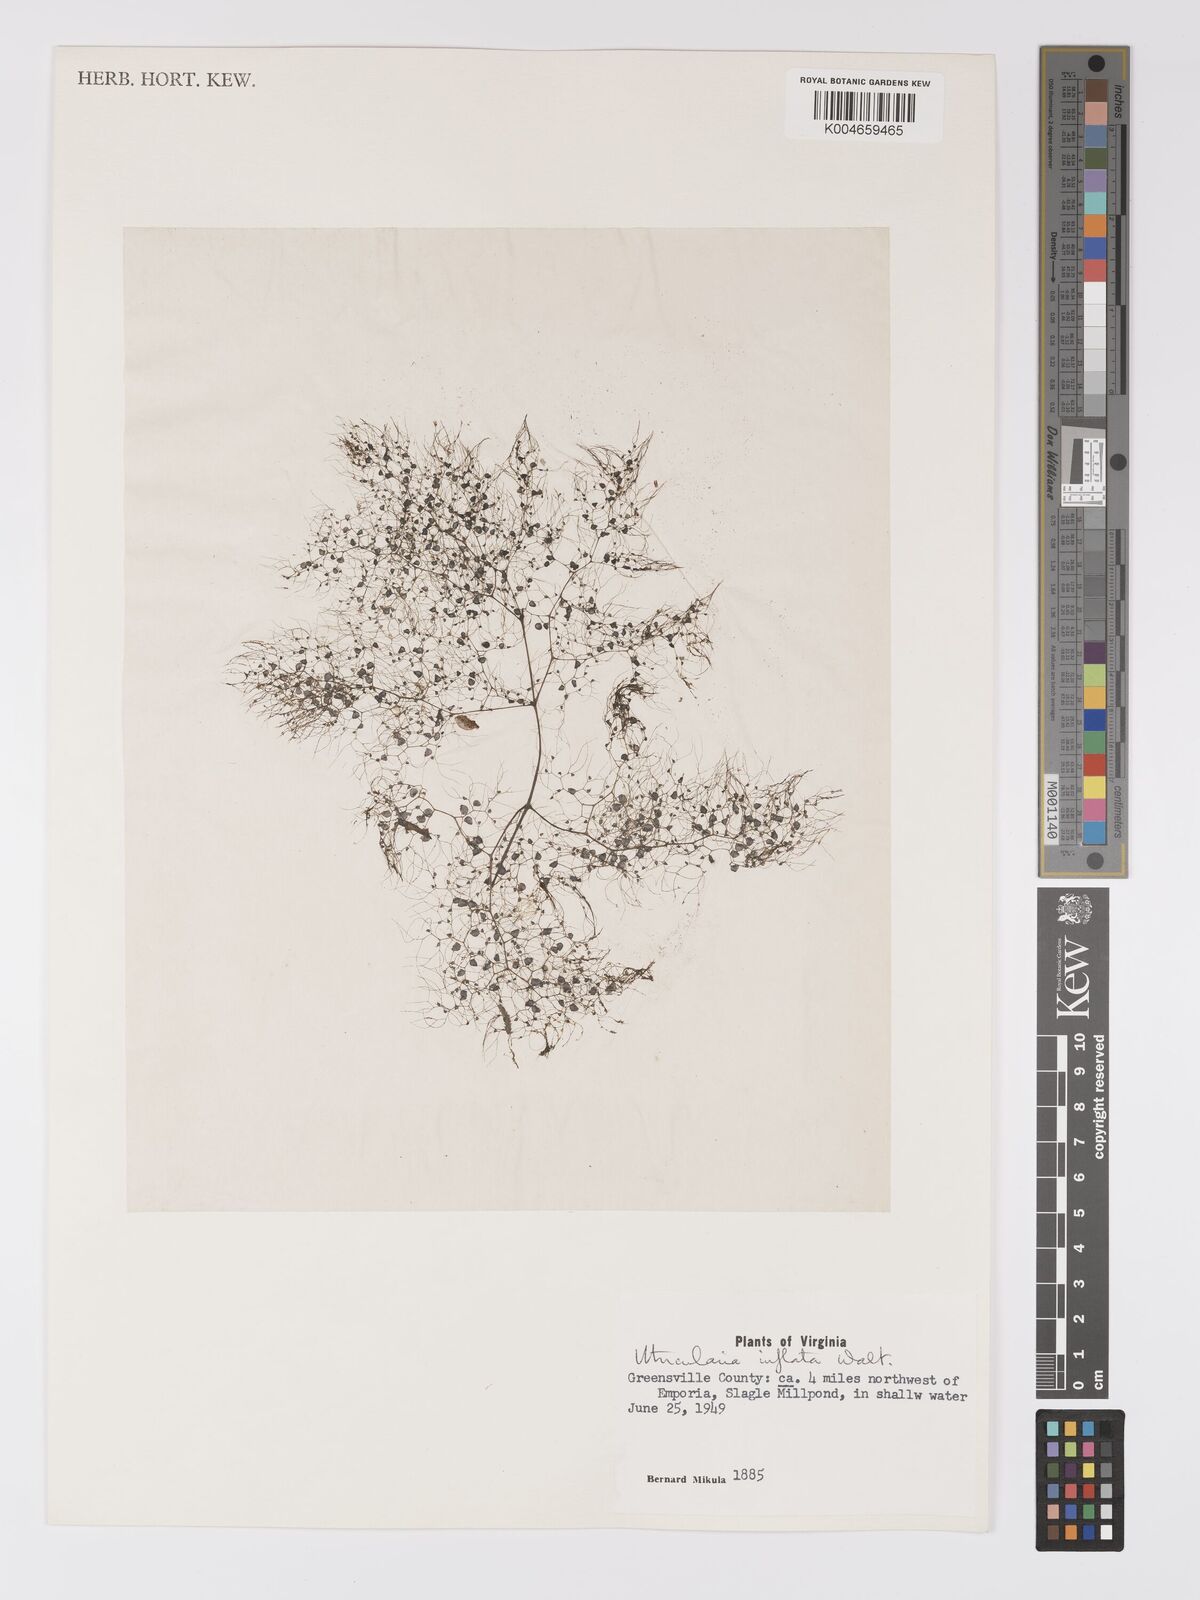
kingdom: Plantae
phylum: Tracheophyta
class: Magnoliopsida
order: Lamiales
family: Lentibulariaceae
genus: Utricularia
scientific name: Utricularia radiata
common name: Floating bladderwort
